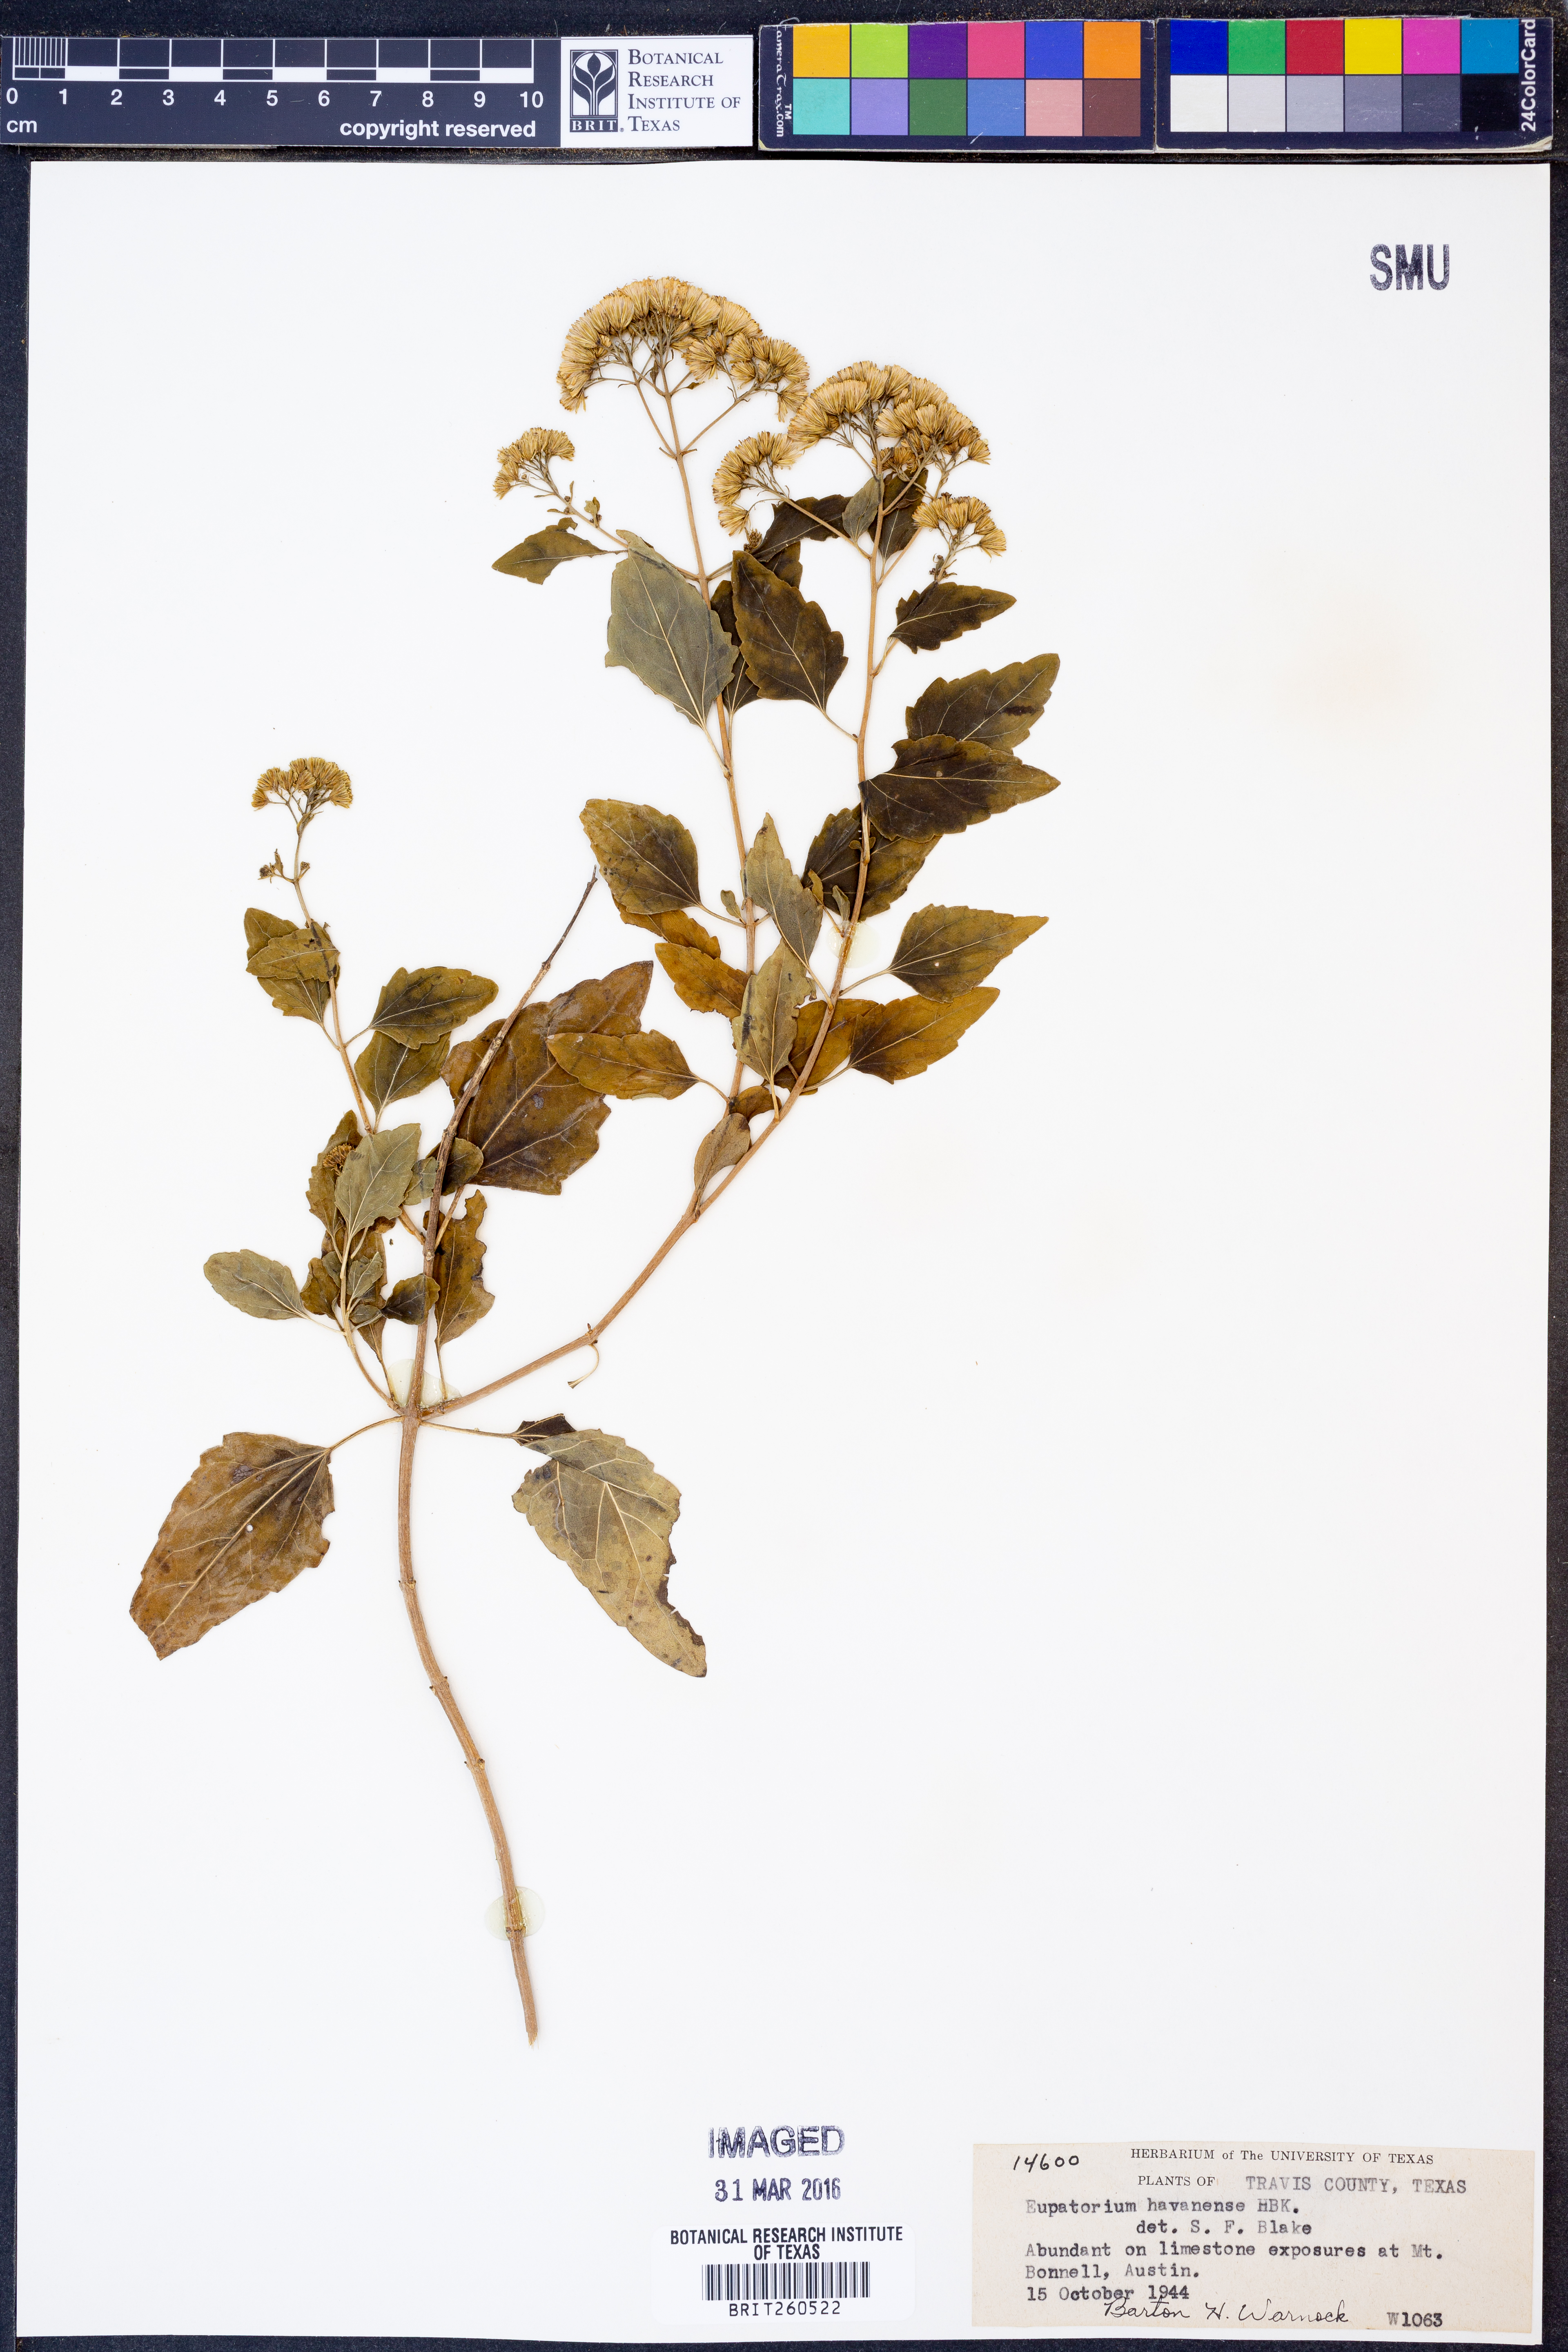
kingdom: Plantae
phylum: Tracheophyta
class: Magnoliopsida
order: Asterales
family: Asteraceae
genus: Ageratina
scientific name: Ageratina havanensis
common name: Havana snakeroot
